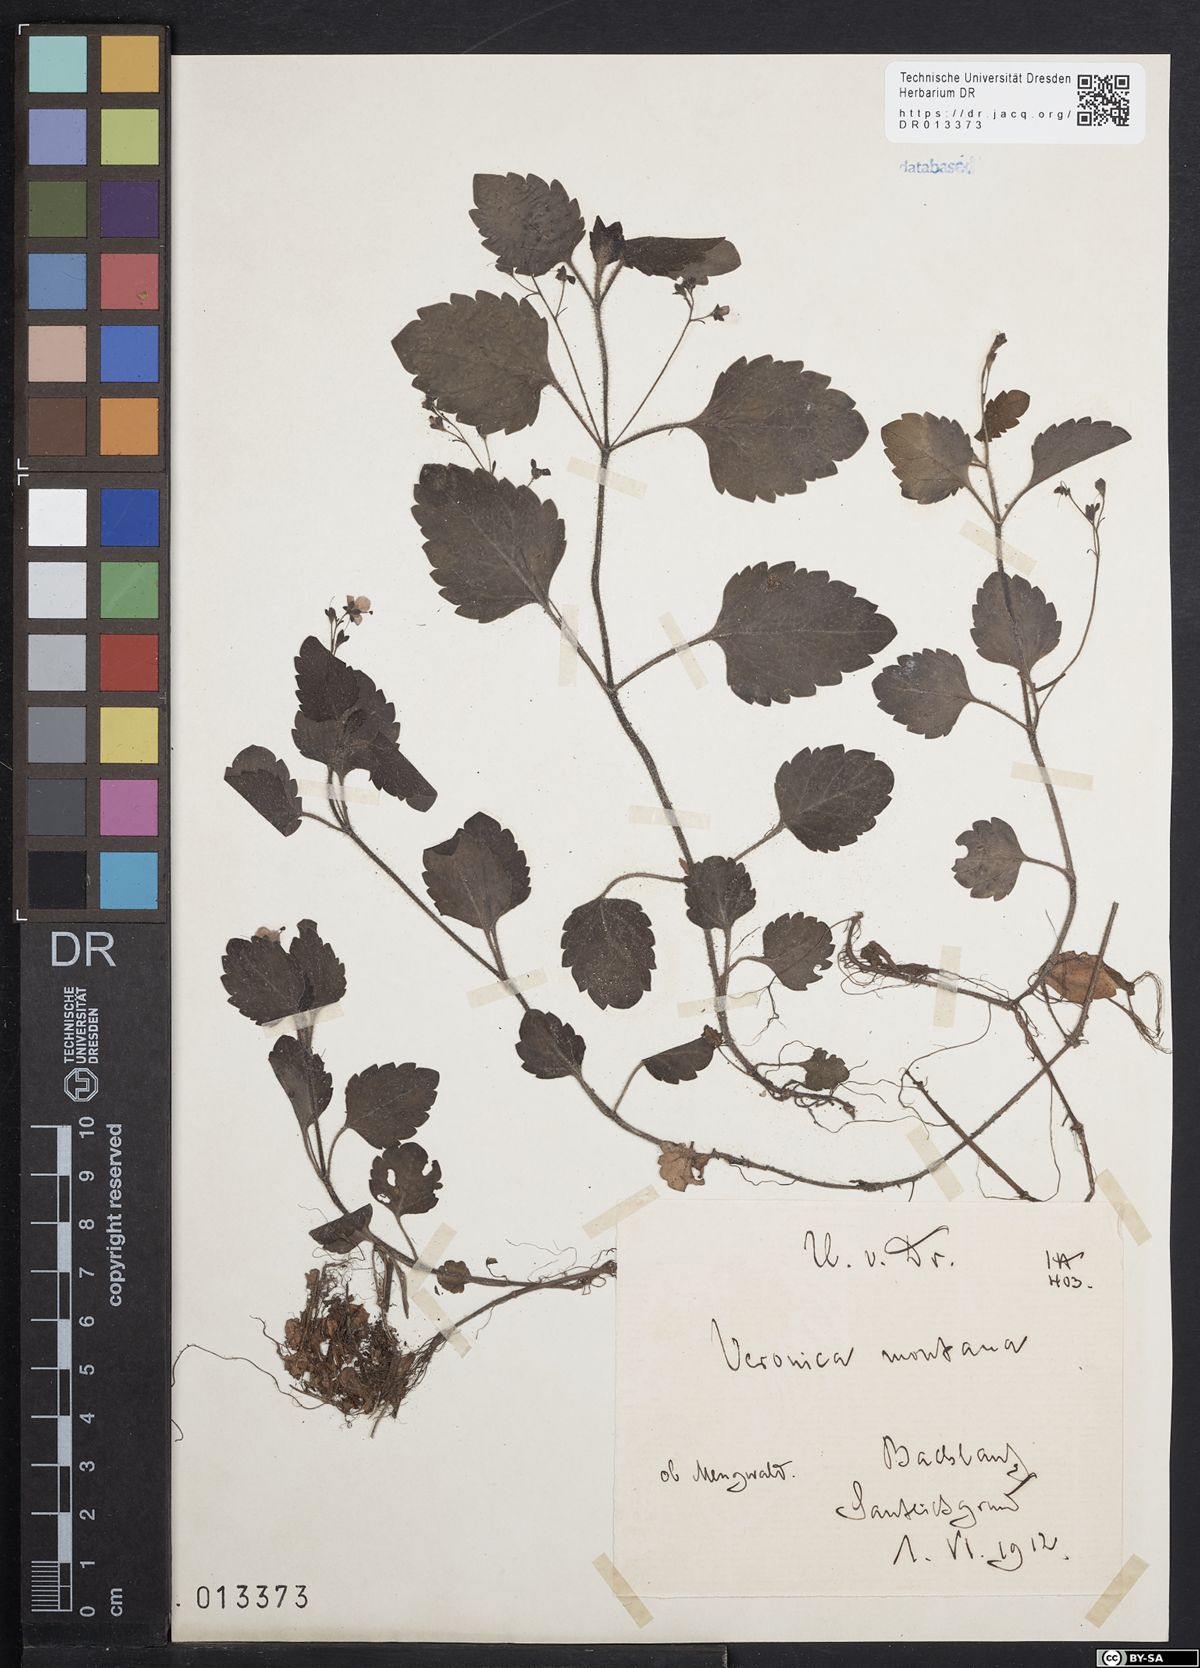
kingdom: Plantae
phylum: Tracheophyta
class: Magnoliopsida
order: Lamiales
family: Plantaginaceae
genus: Veronica
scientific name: Veronica montana
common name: Wood speedwell
